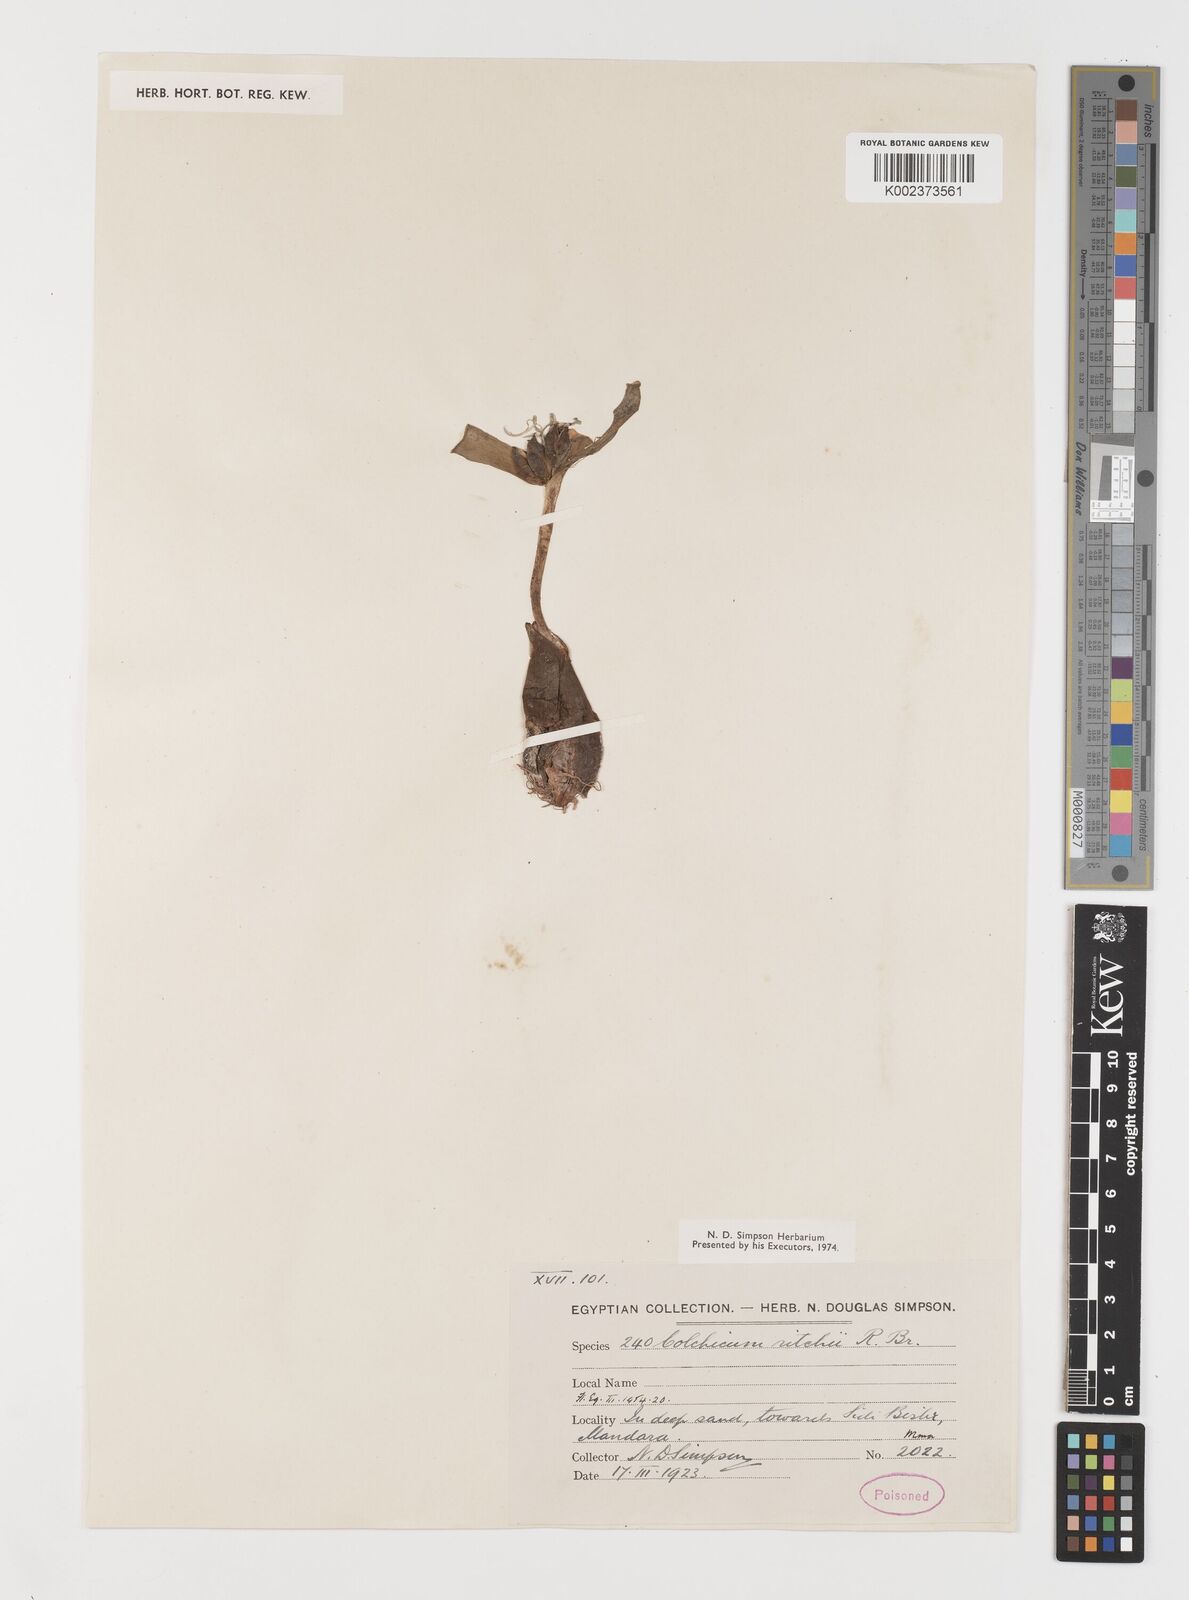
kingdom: Plantae
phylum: Tracheophyta
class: Liliopsida
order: Liliales
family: Colchicaceae
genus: Colchicum
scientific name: Colchicum ritchii
